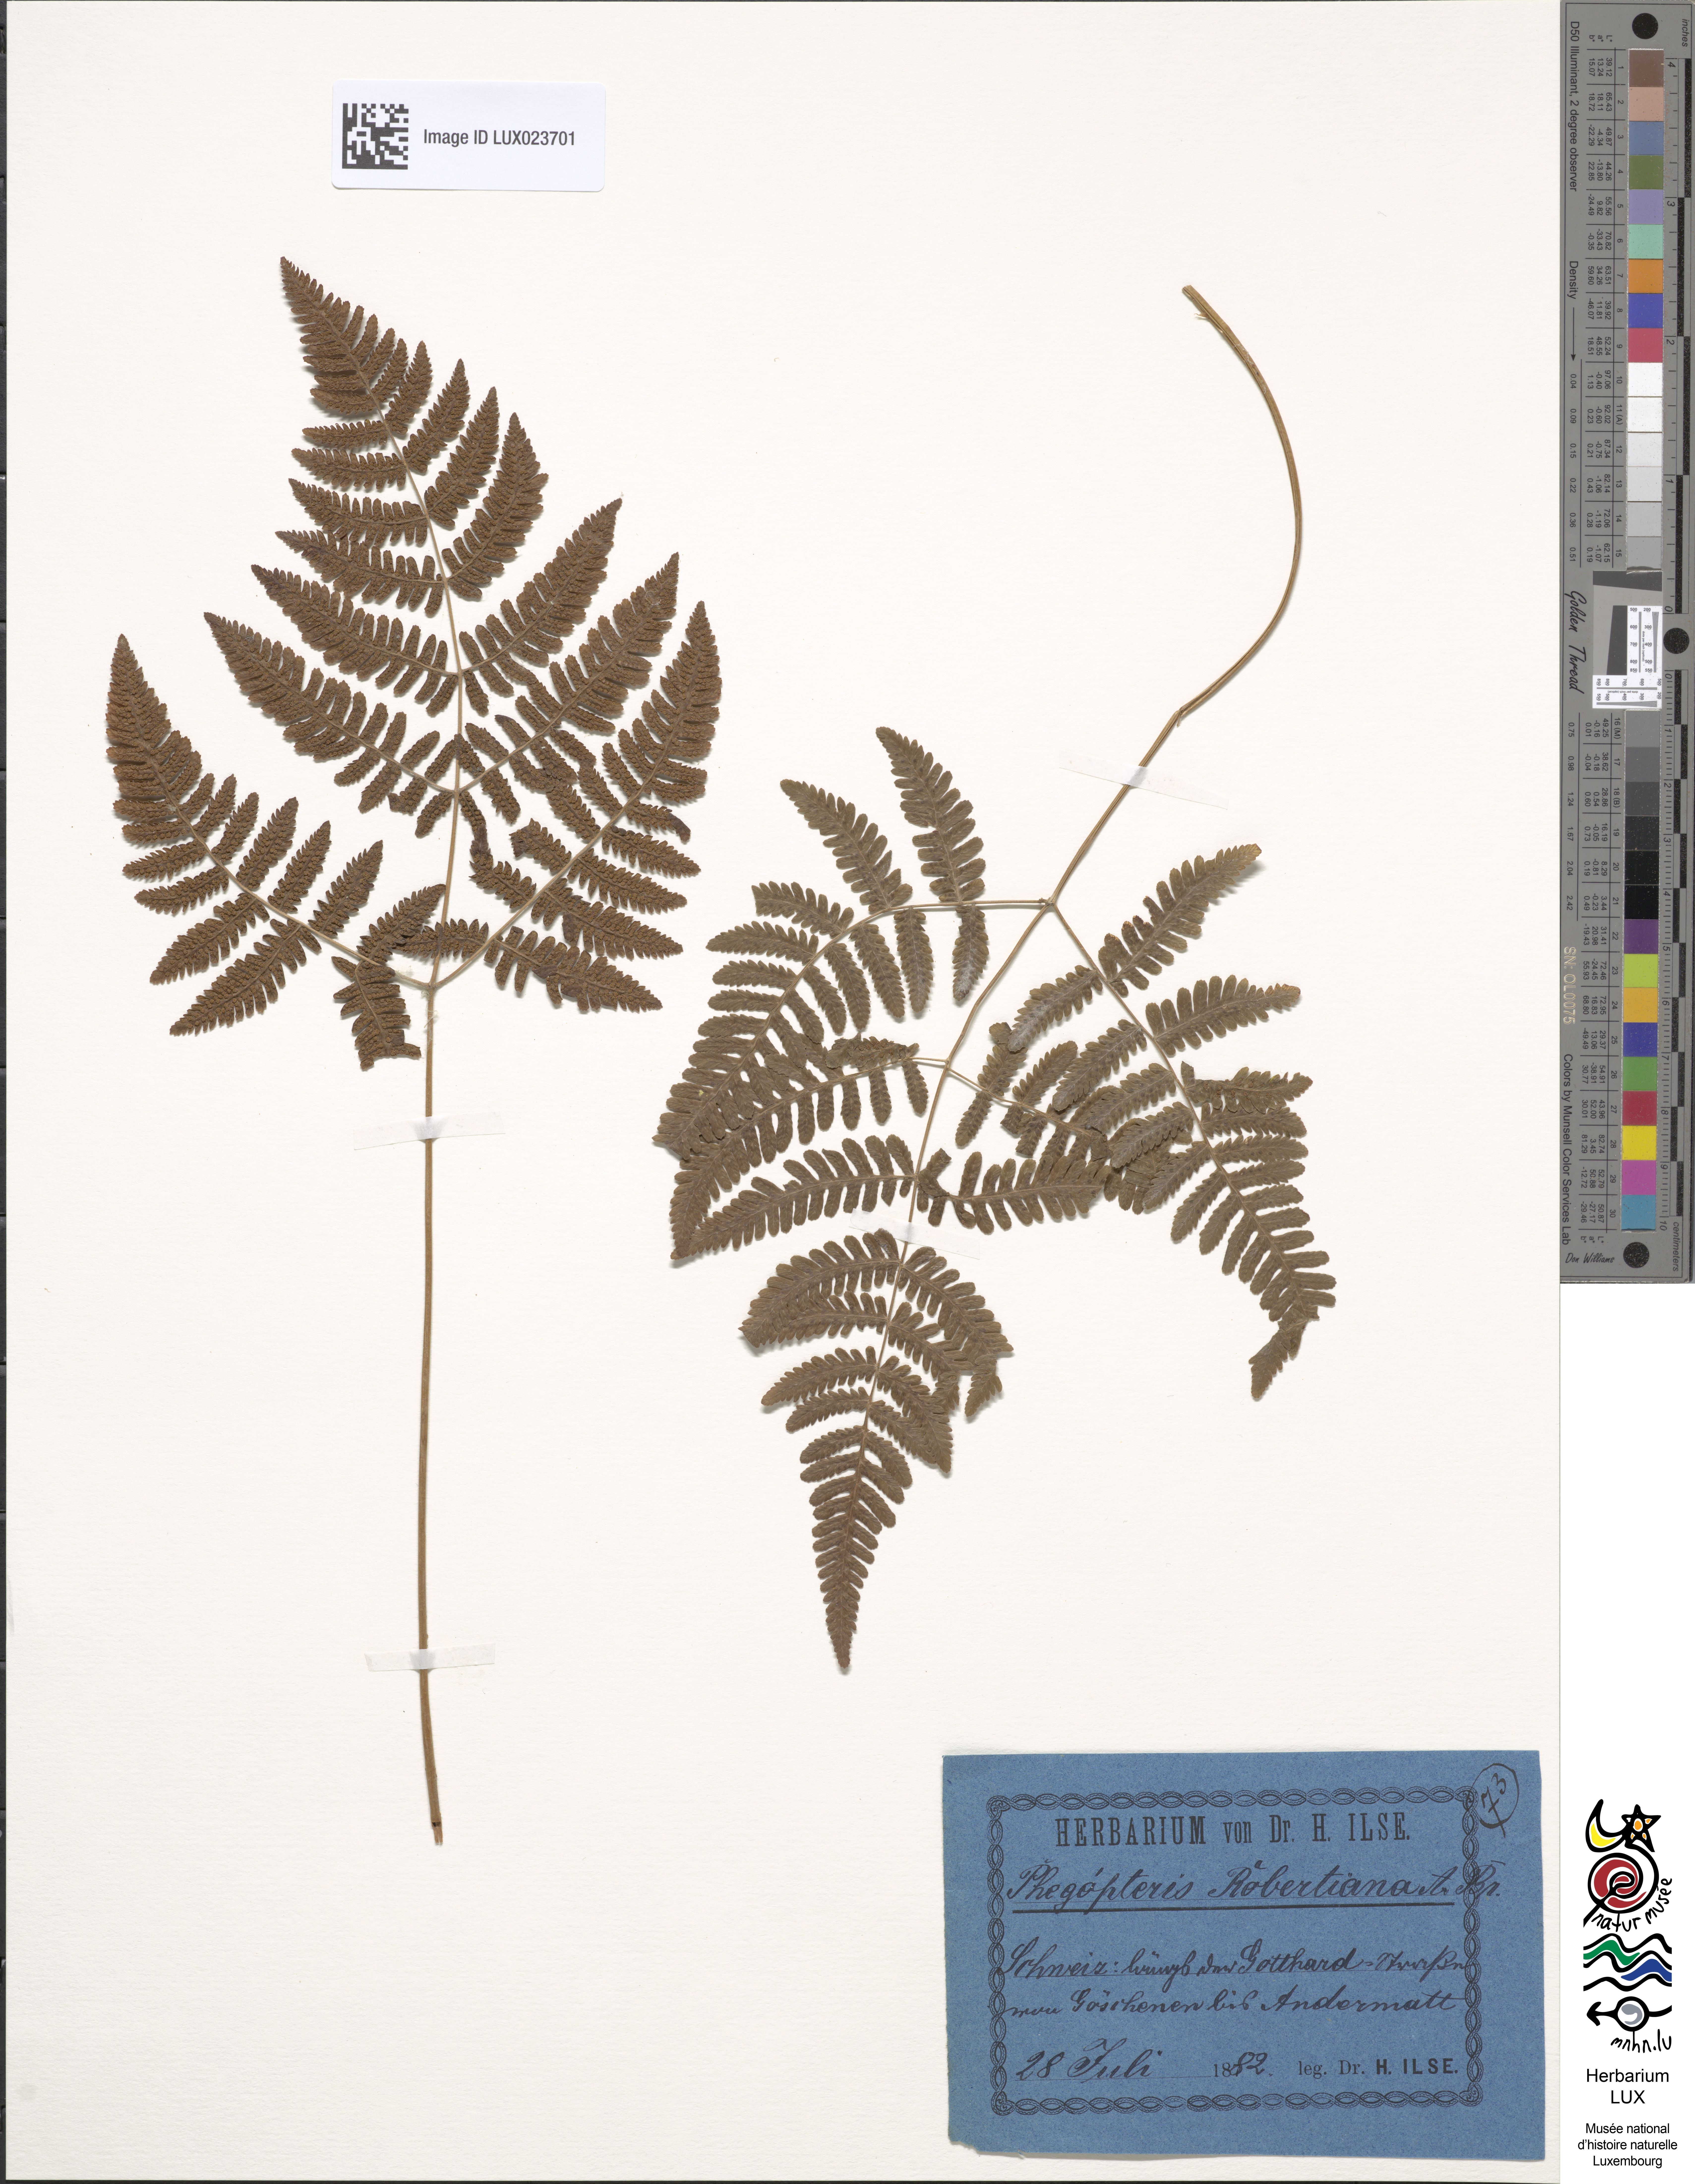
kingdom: Plantae
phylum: Tracheophyta
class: Polypodiopsida
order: Polypodiales
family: Cystopteridaceae
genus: Gymnocarpium
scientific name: Gymnocarpium robertianum
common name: Limestone fern
